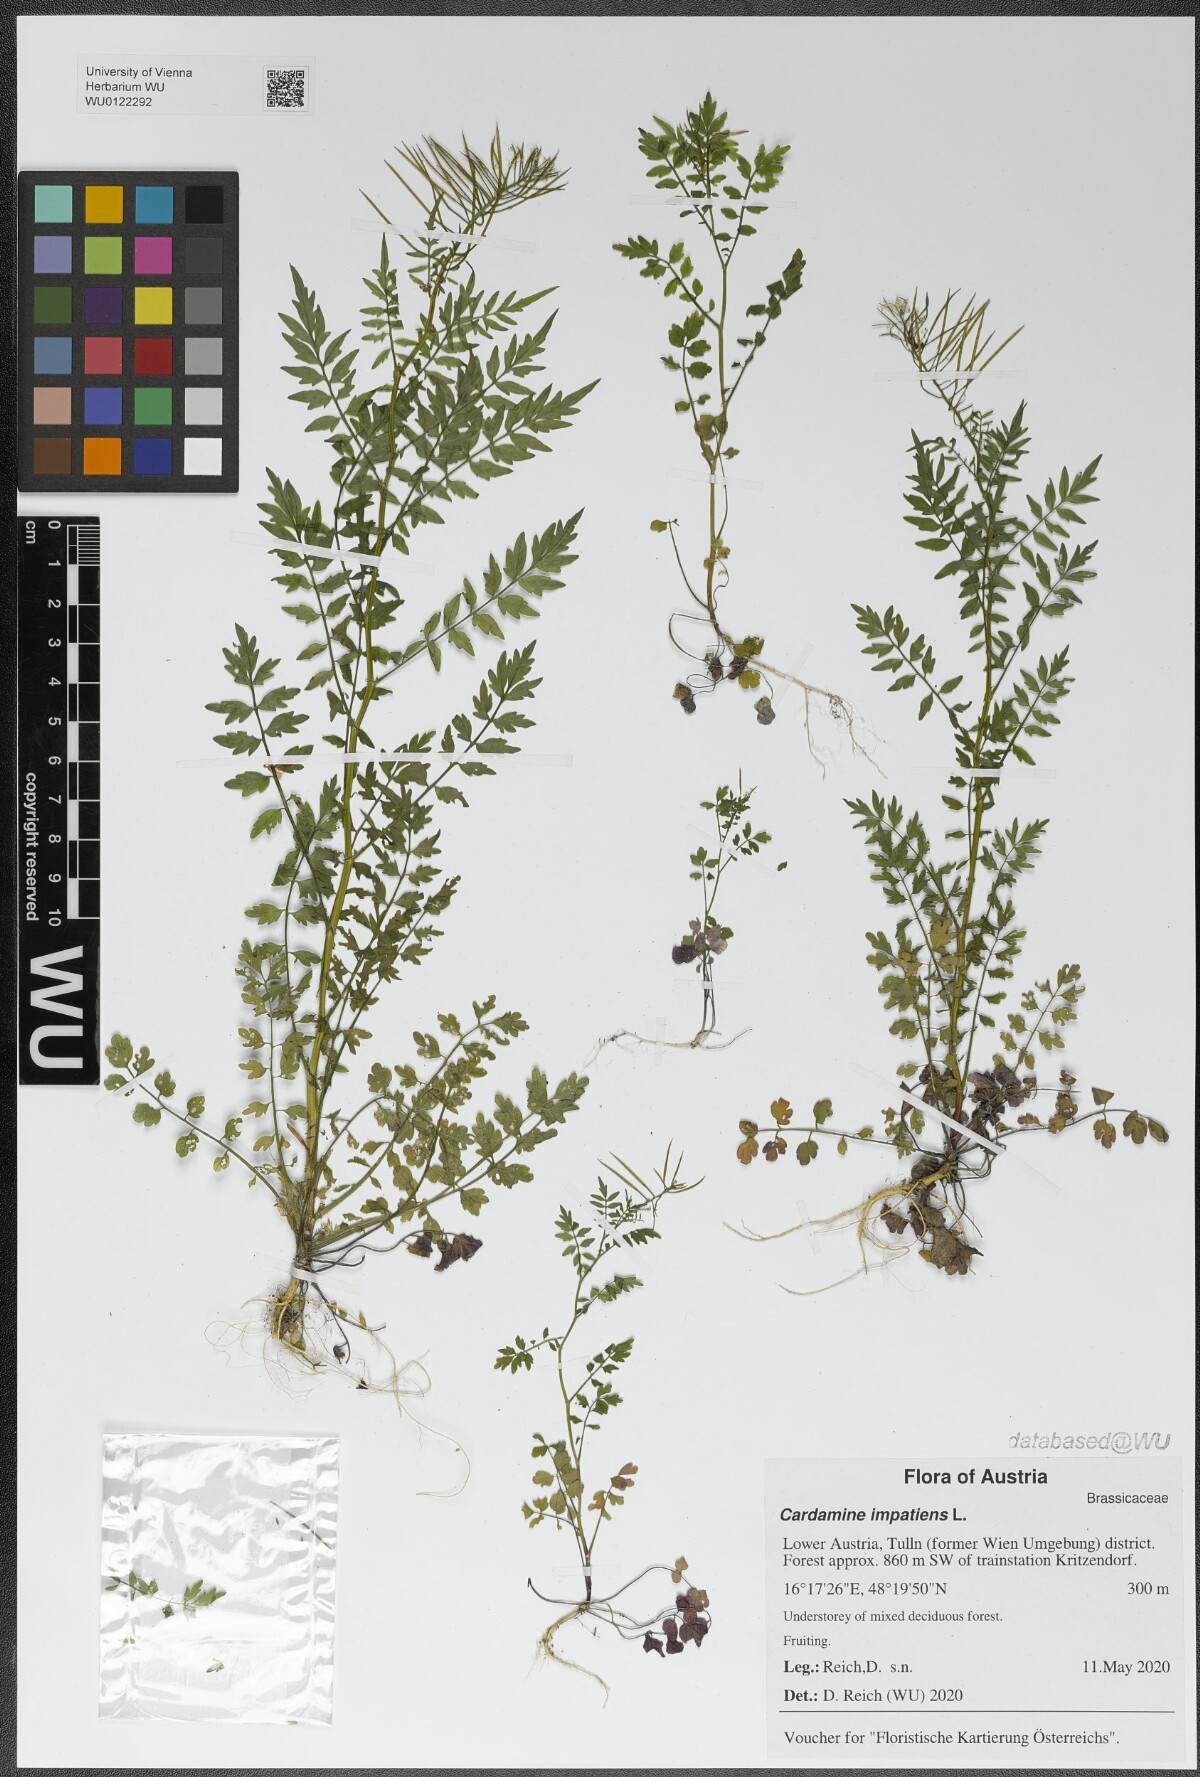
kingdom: Plantae
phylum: Tracheophyta
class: Magnoliopsida
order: Brassicales
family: Brassicaceae
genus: Cardamine
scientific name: Cardamine impatiens
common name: Narrow-leaved bitter-cress
